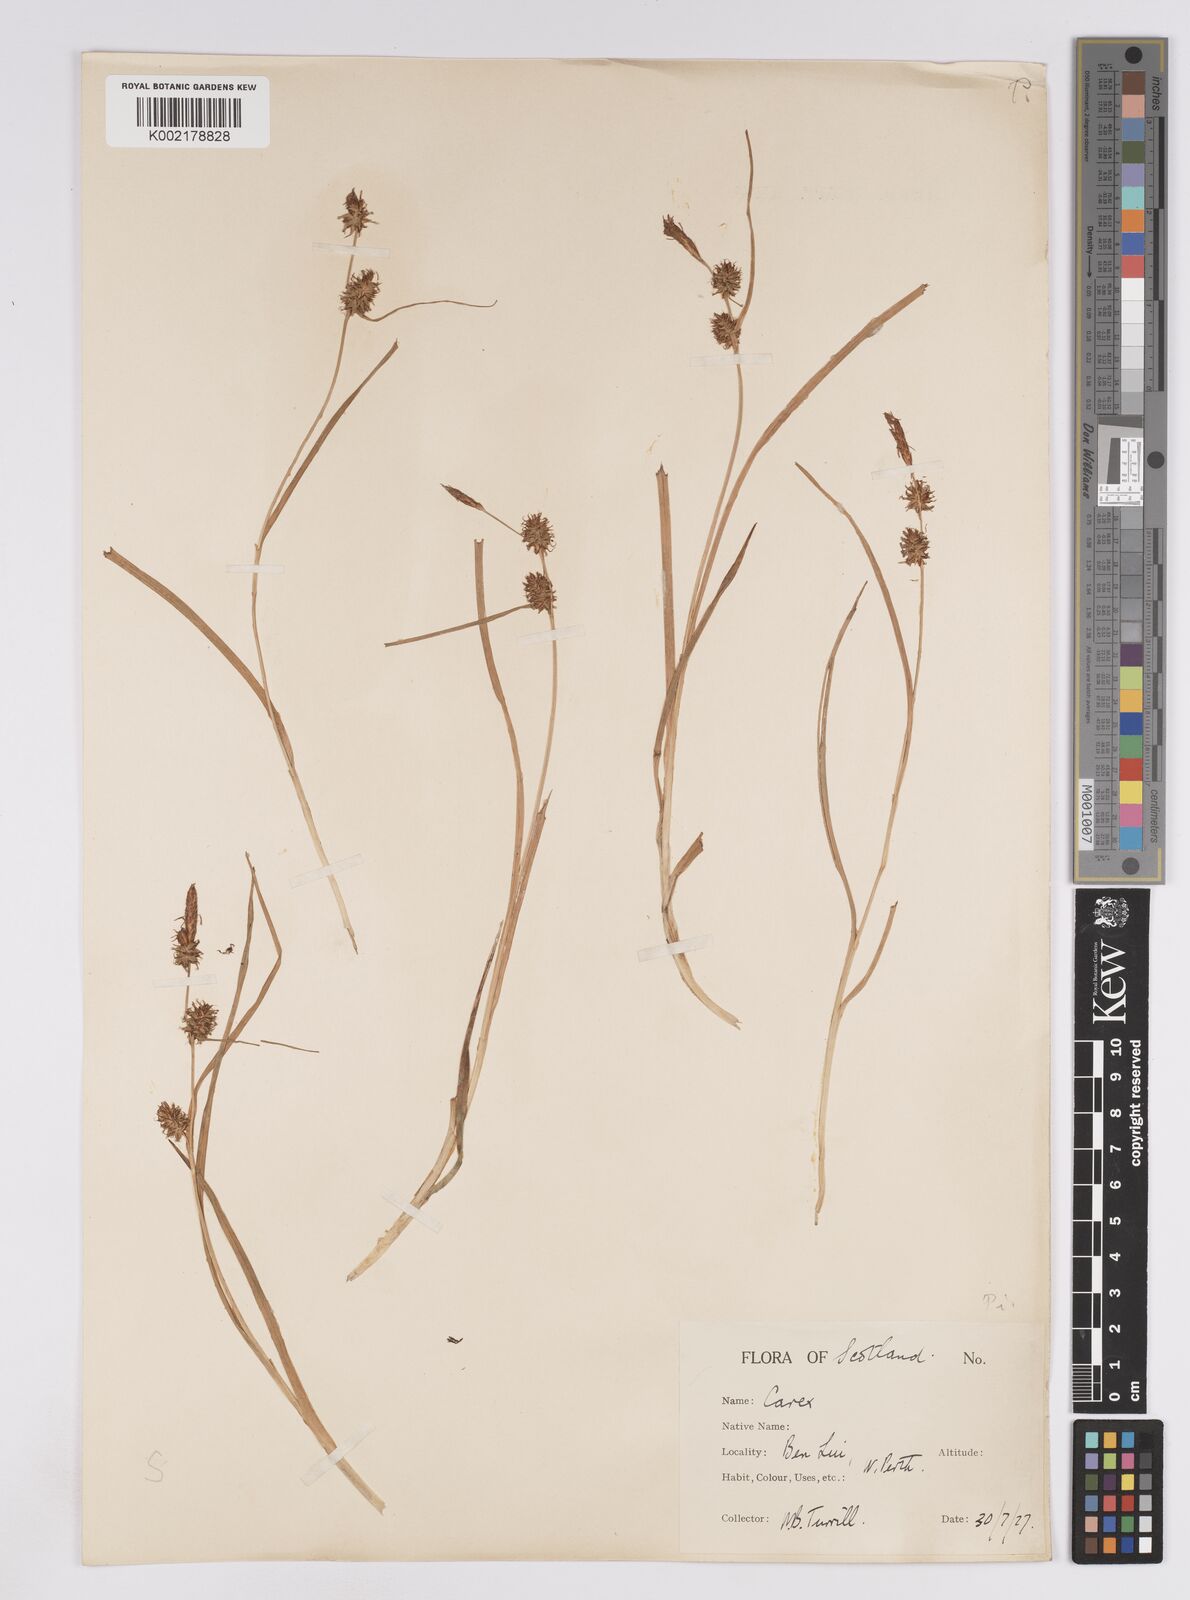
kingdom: Plantae
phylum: Tracheophyta
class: Liliopsida
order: Poales
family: Cyperaceae
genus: Carex
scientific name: Carex lepidocarpa
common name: Long-stalked yellow-sedge
